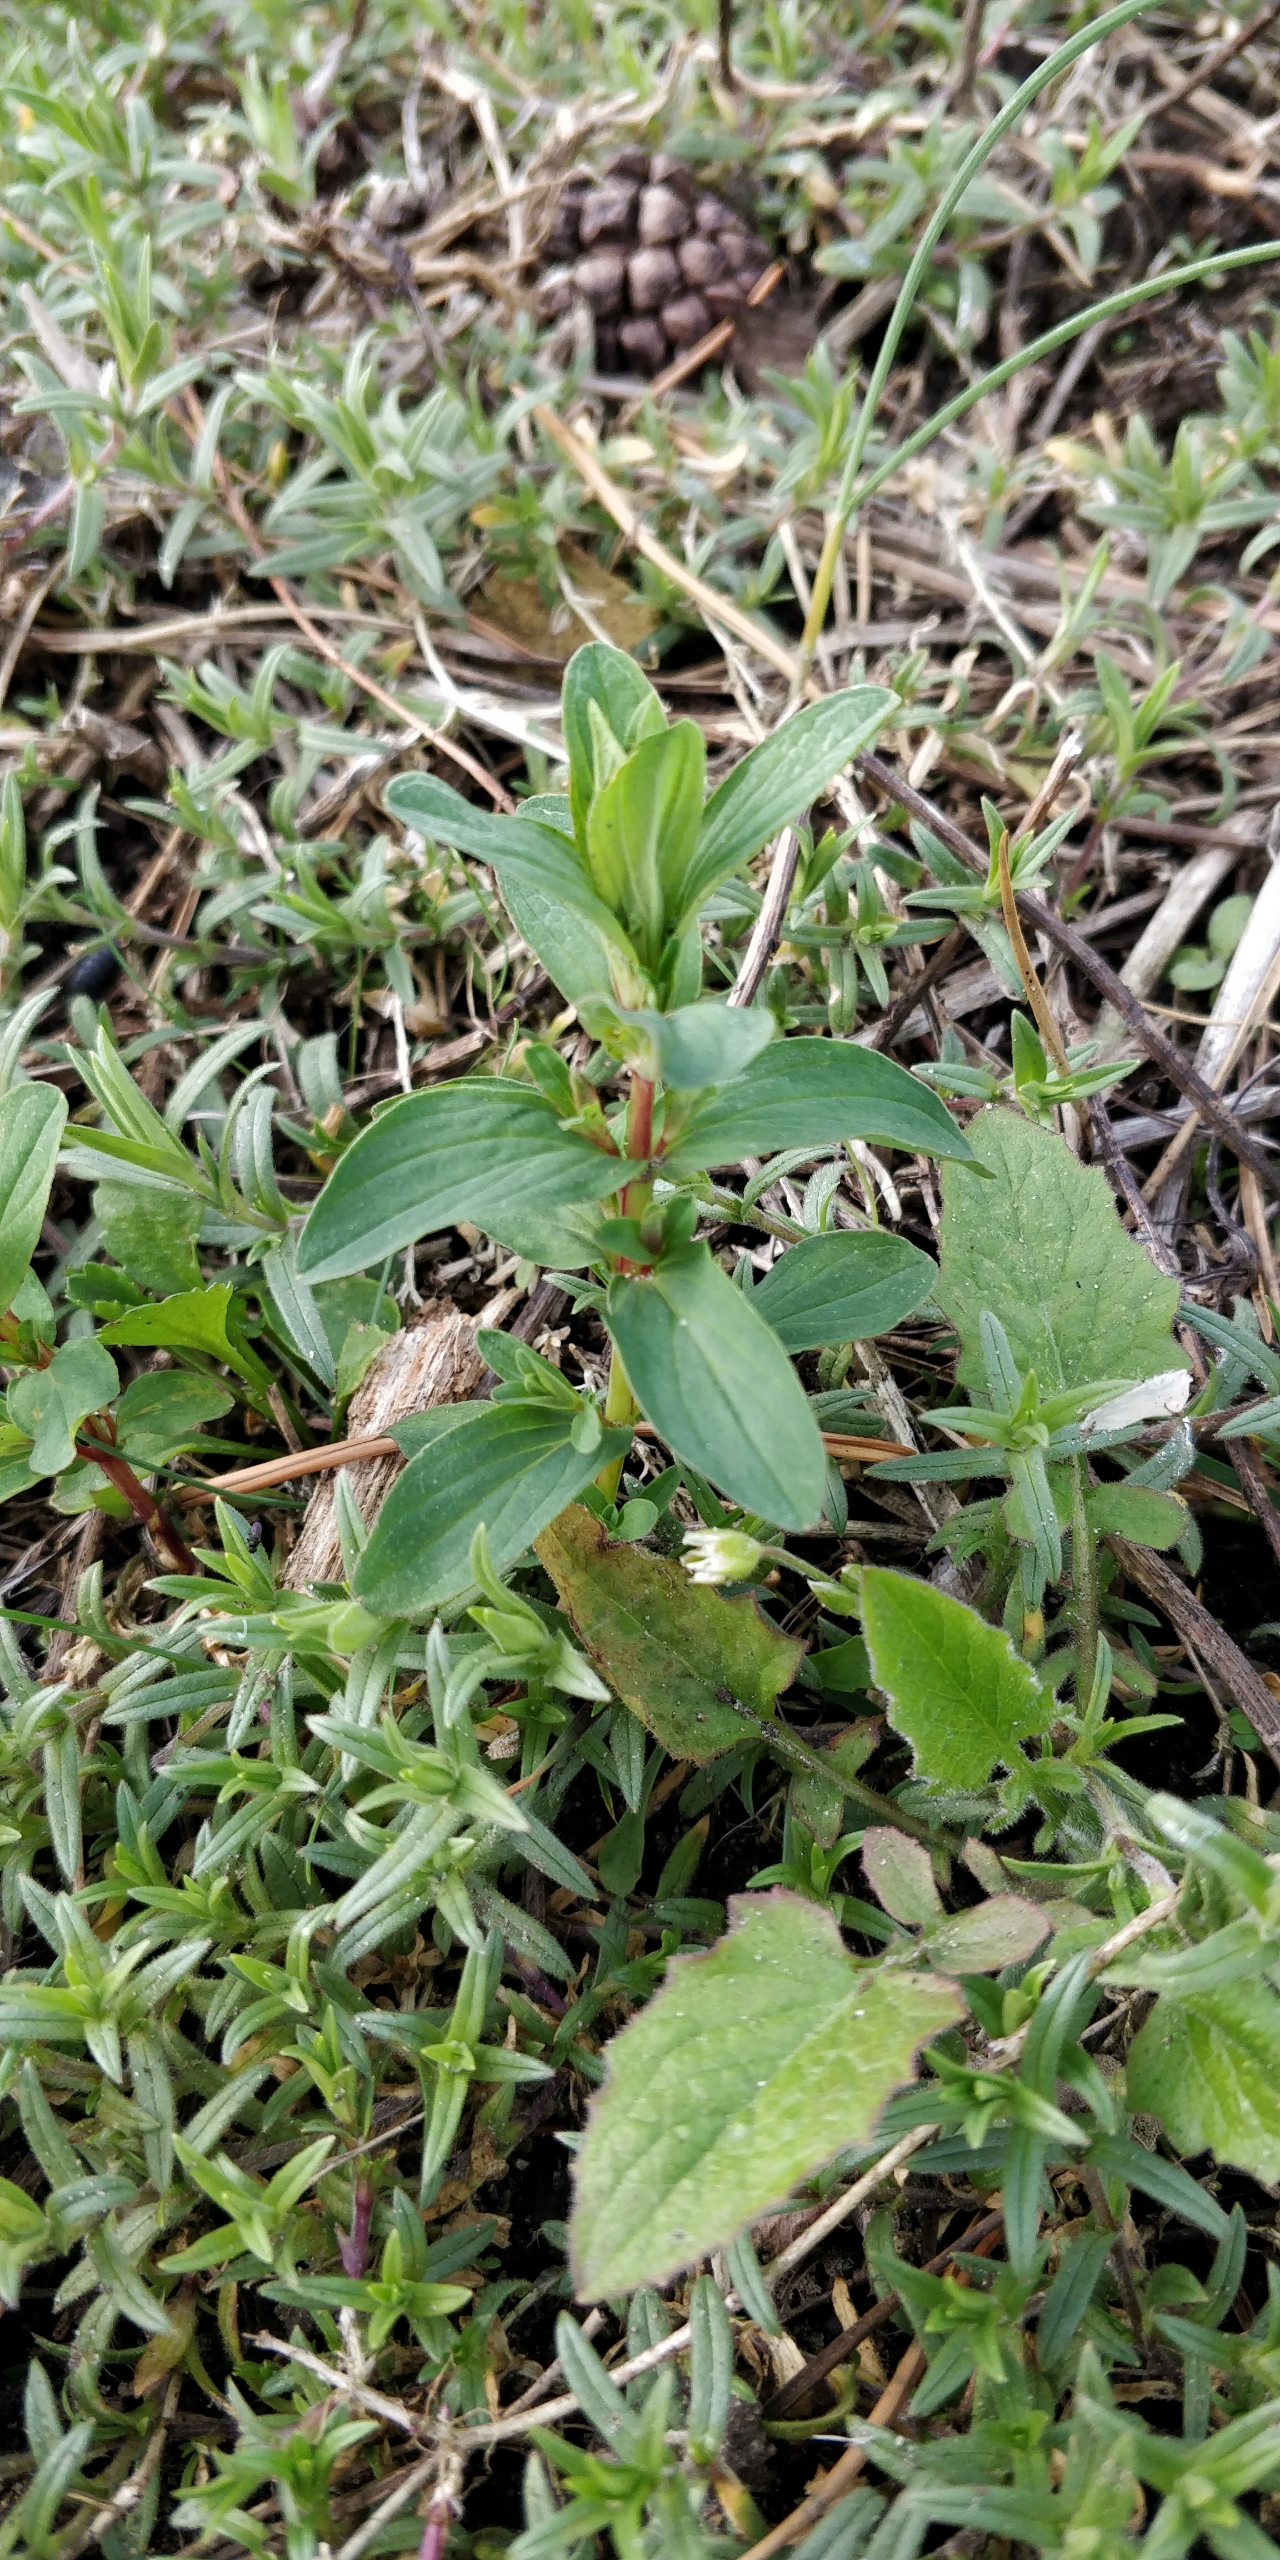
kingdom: Plantae
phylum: Tracheophyta
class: Magnoliopsida
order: Malpighiales
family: Hypericaceae
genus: Hypericum
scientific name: Hypericum perforatum
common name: Prikbladet perikon
